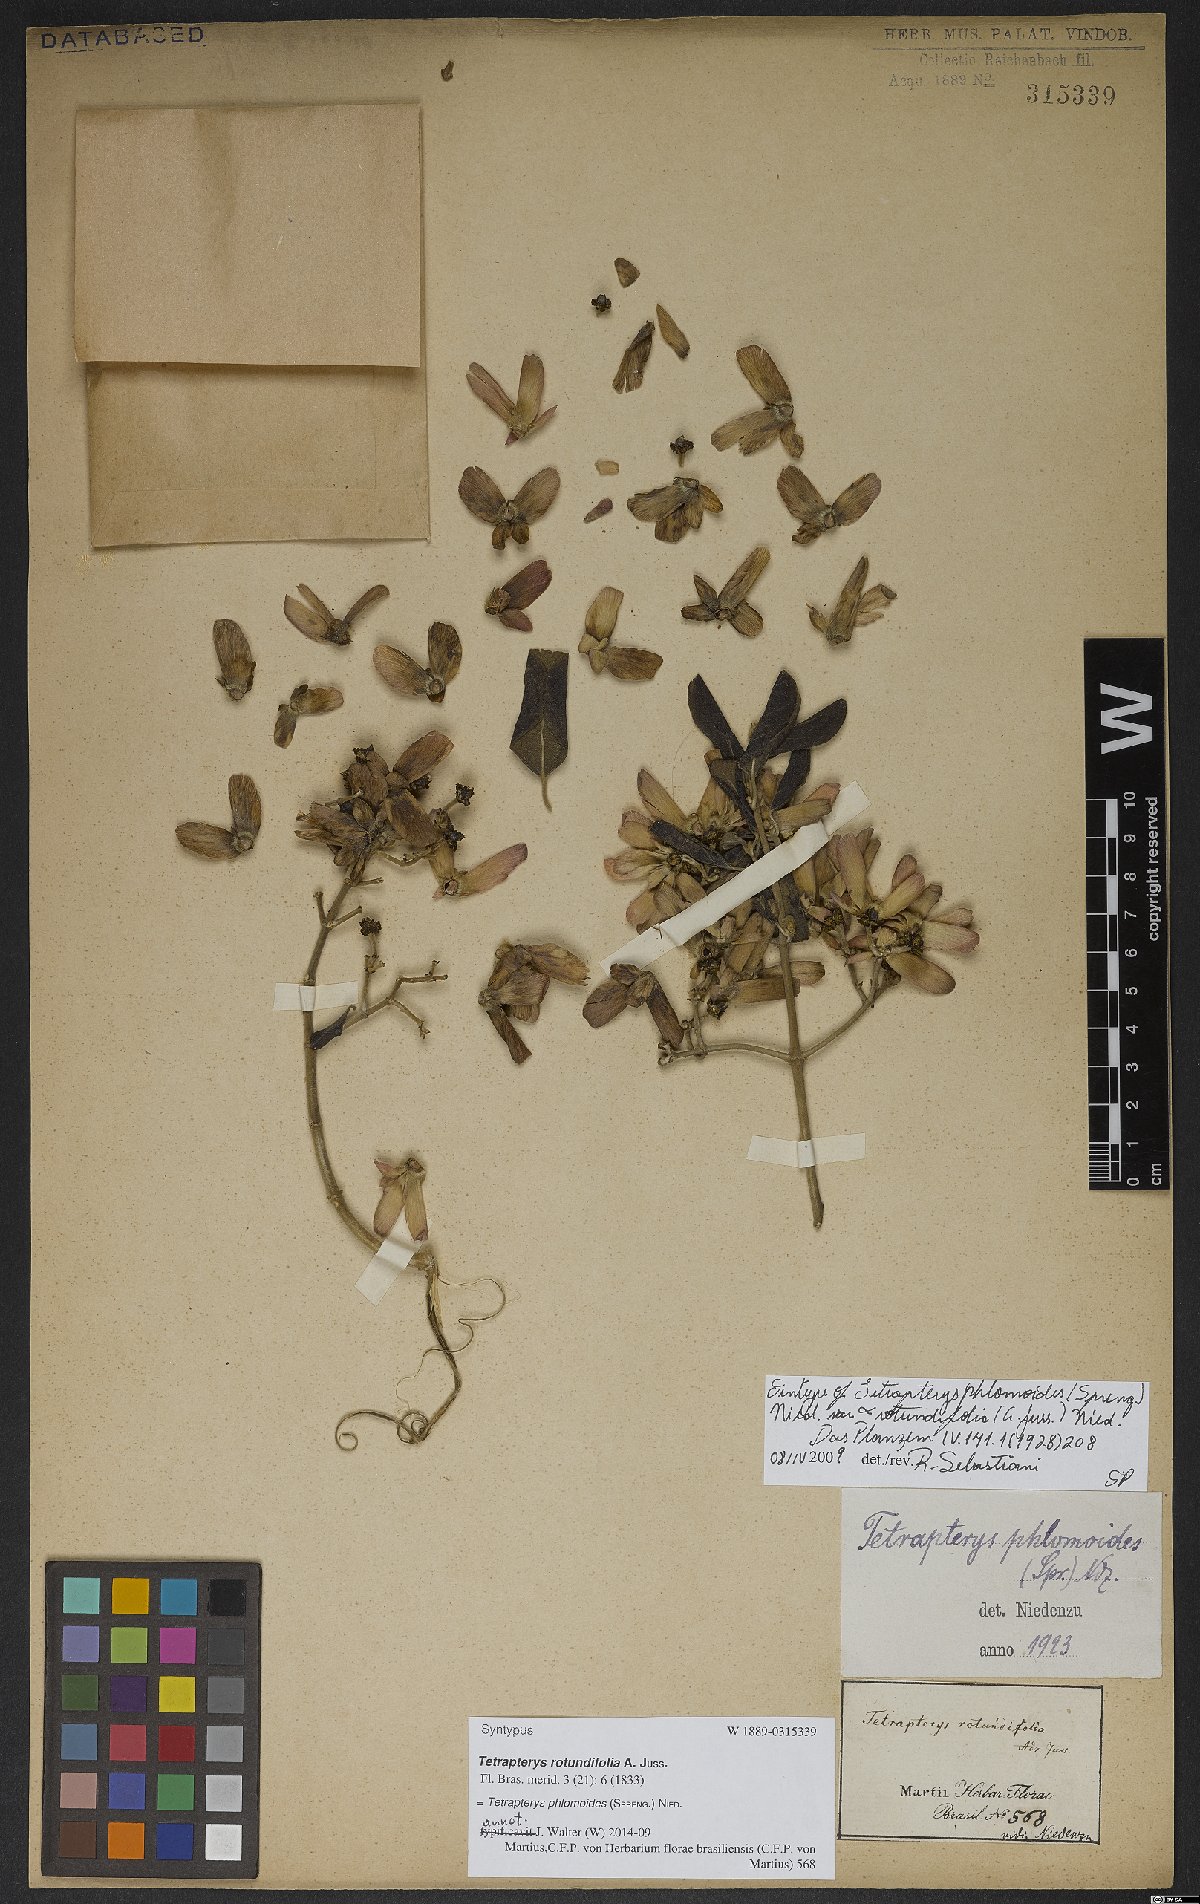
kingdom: Plantae
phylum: Tracheophyta
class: Magnoliopsida
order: Malpighiales
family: Malpighiaceae
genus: Tetrapterys
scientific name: Tetrapterys phlomoides
